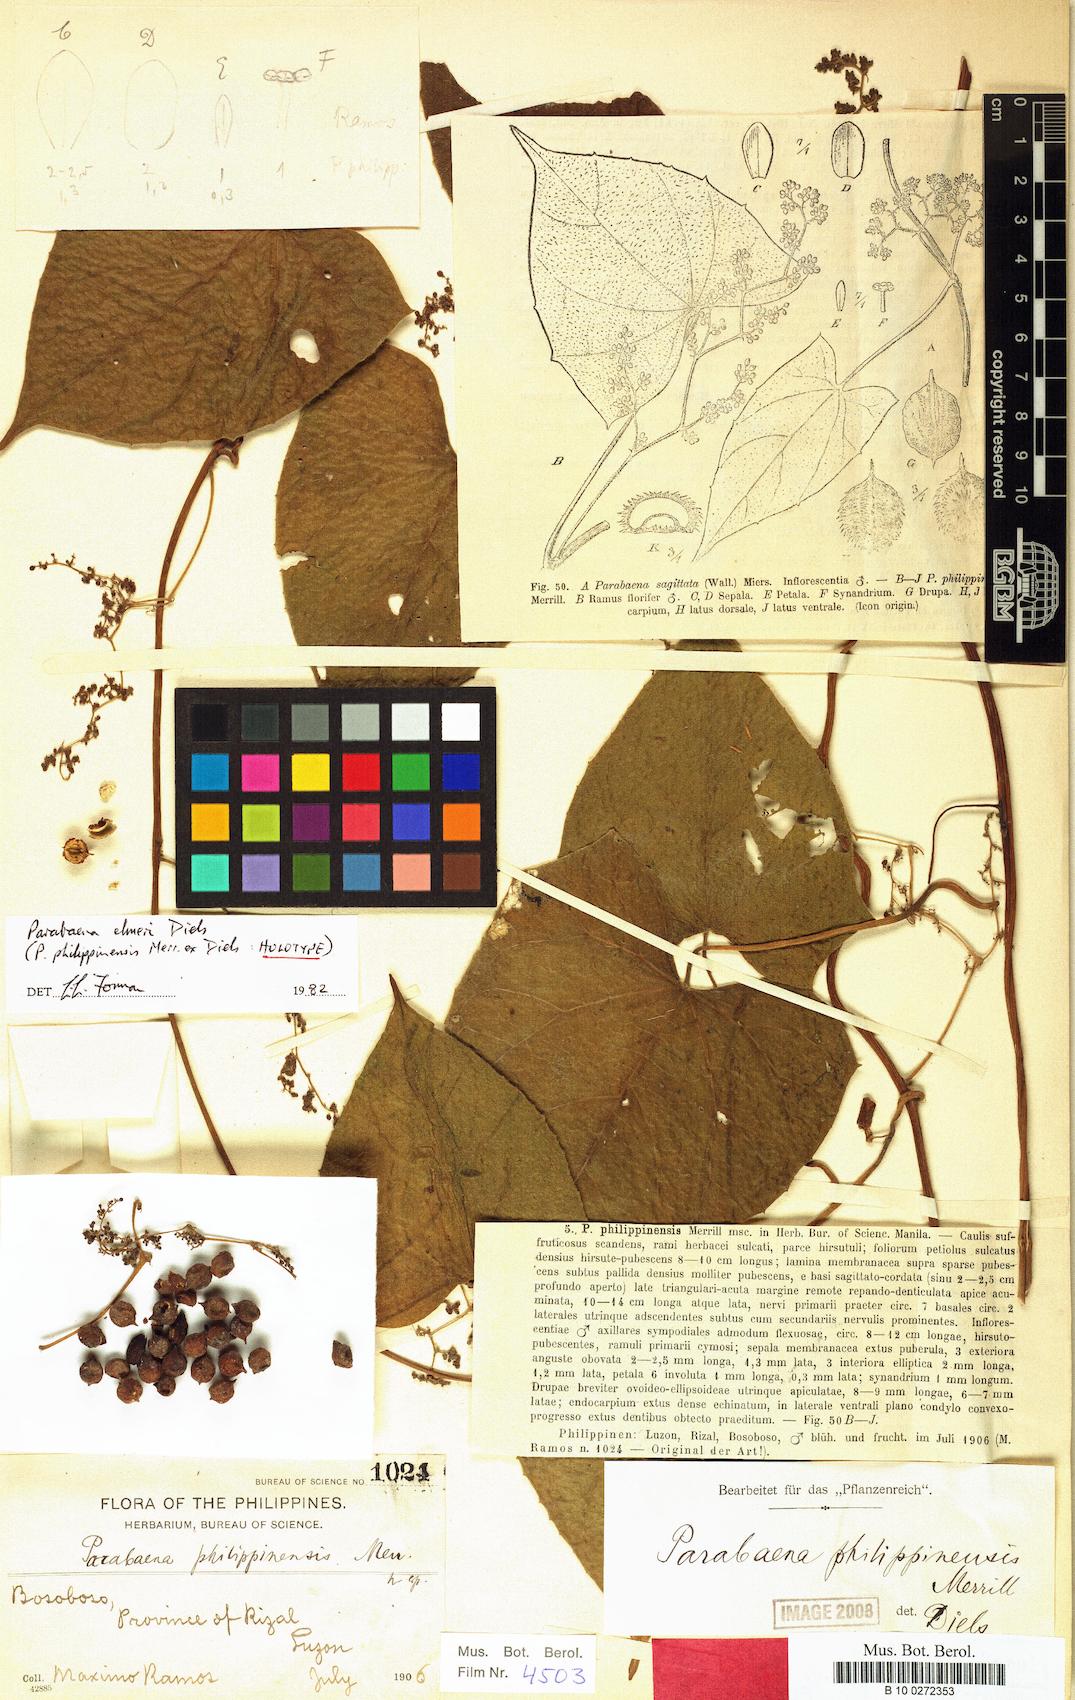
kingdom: Plantae
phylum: Tracheophyta
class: Magnoliopsida
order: Ranunculales
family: Menispermaceae
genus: Parabaena
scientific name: Parabaena elmeri
